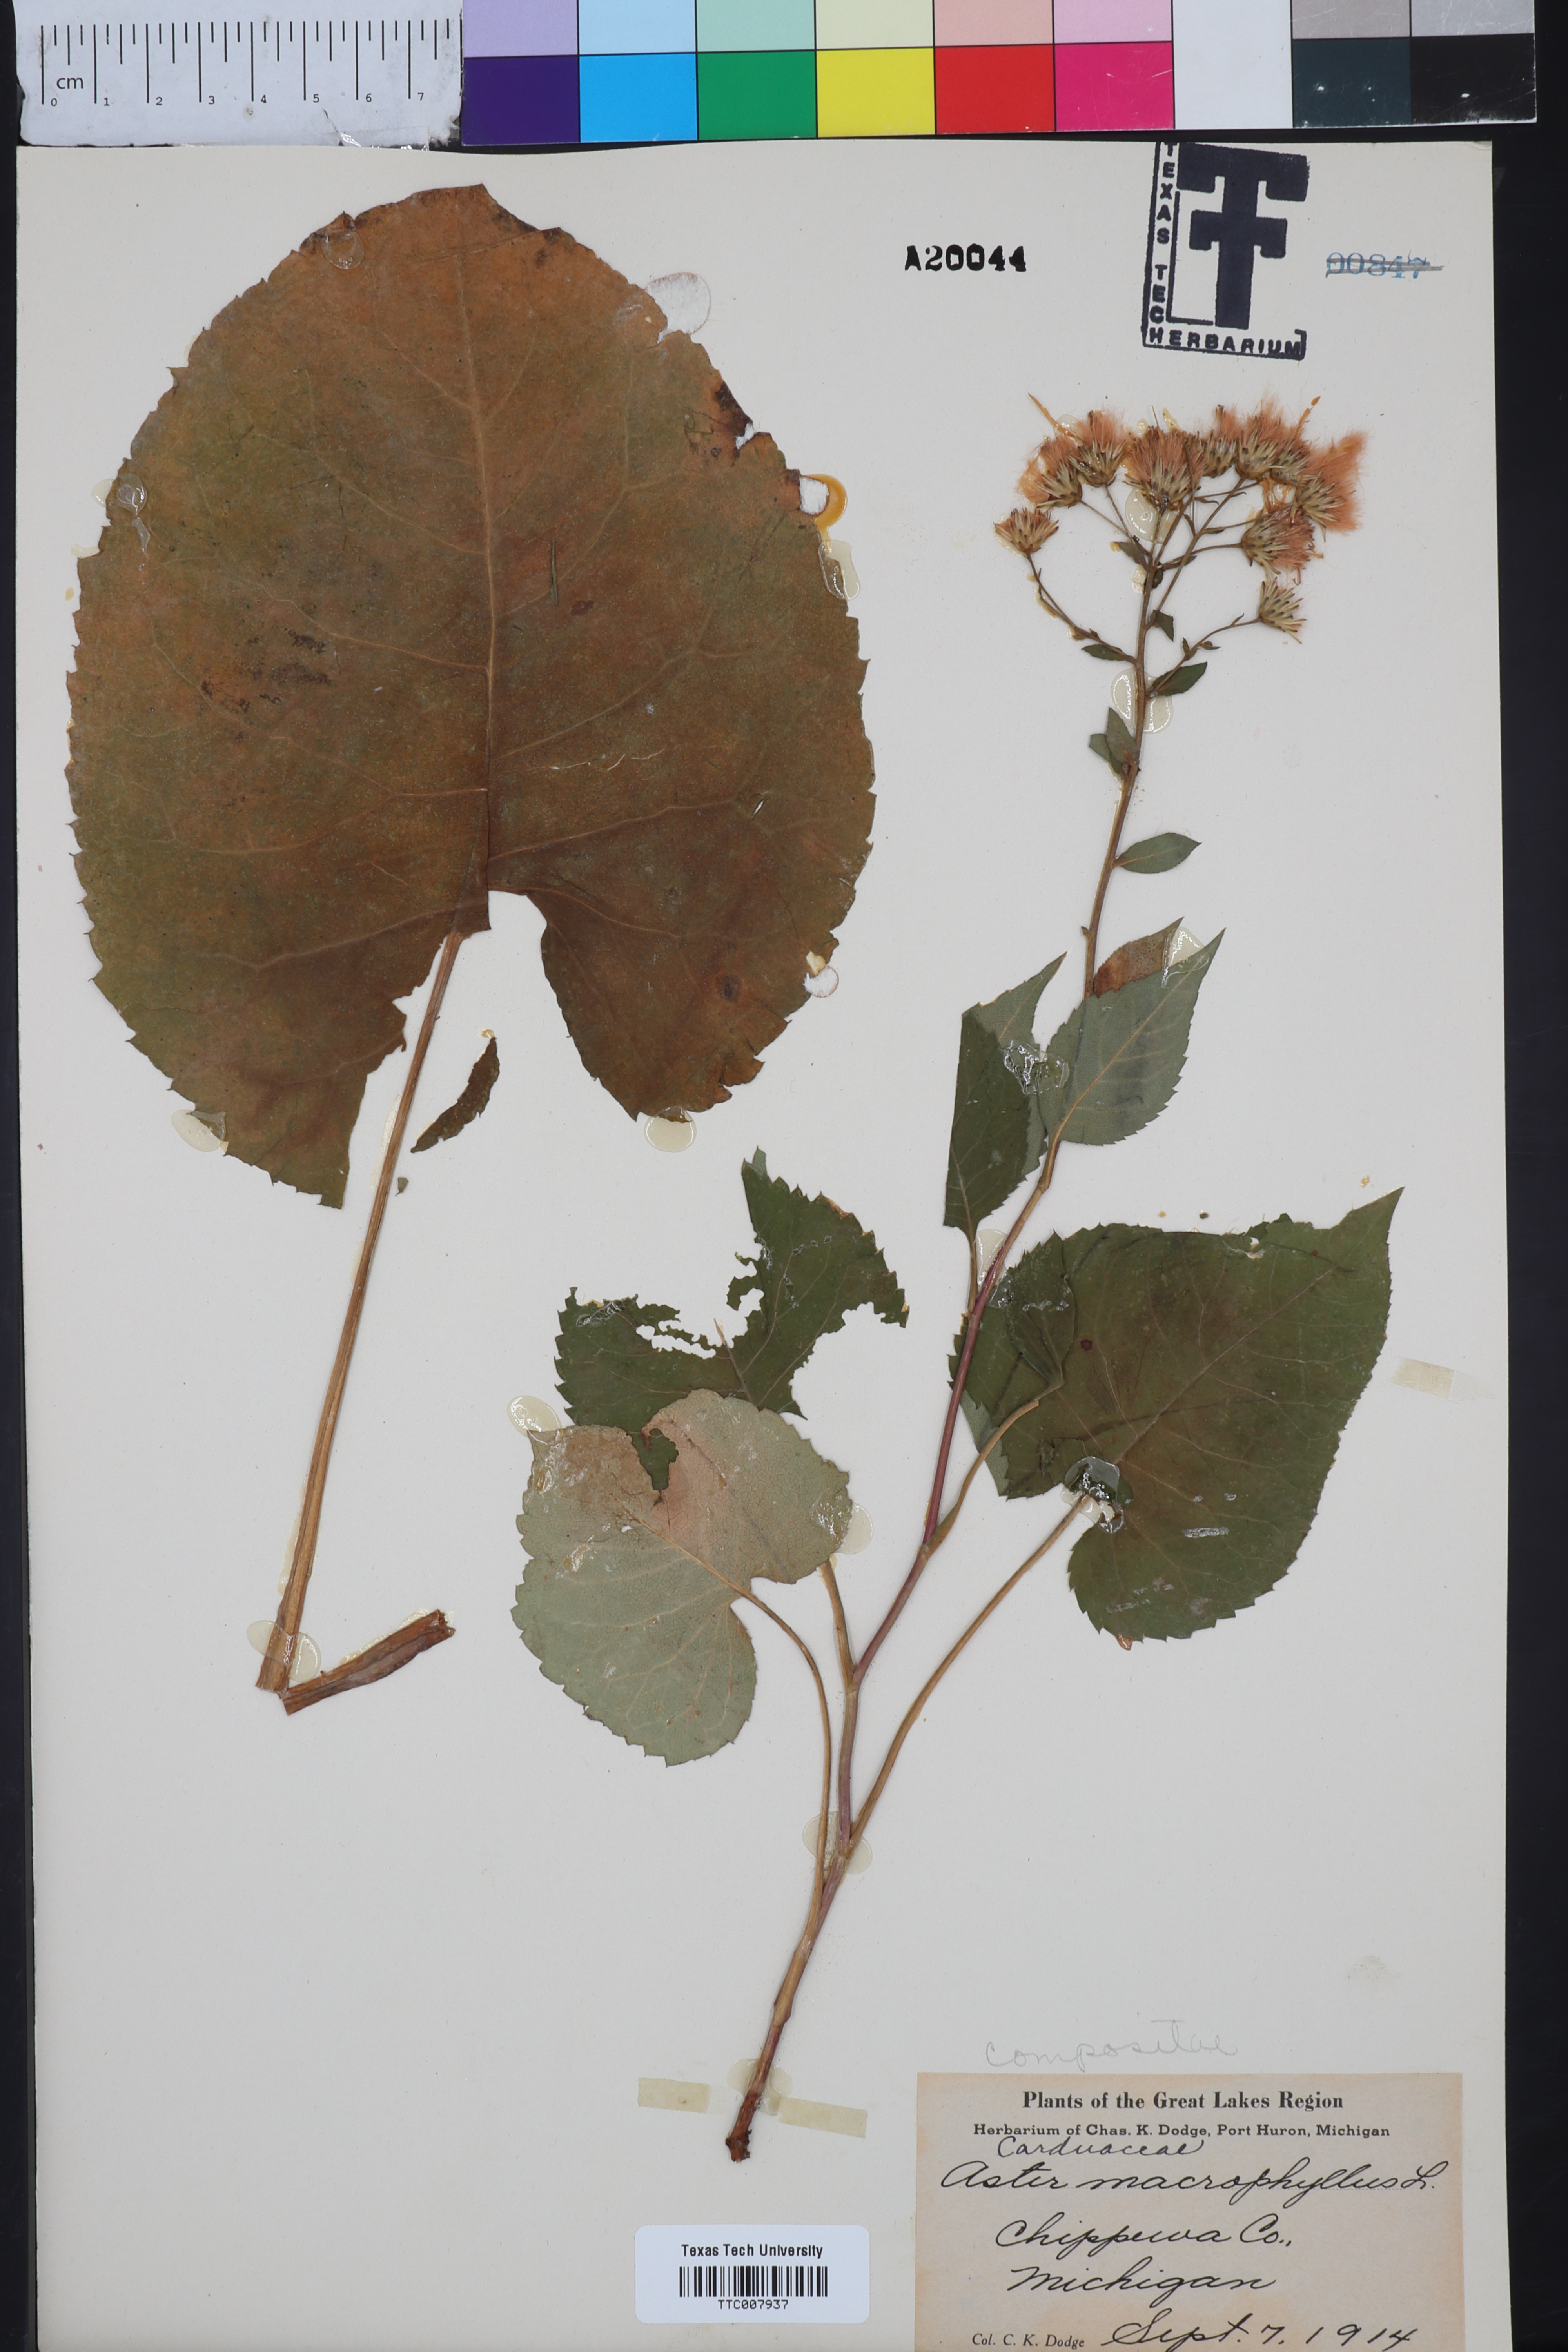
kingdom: Plantae
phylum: Tracheophyta
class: Magnoliopsida
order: Asterales
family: Asteraceae
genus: Eurybia
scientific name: Eurybia macrophylla
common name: Big-leaved aster
